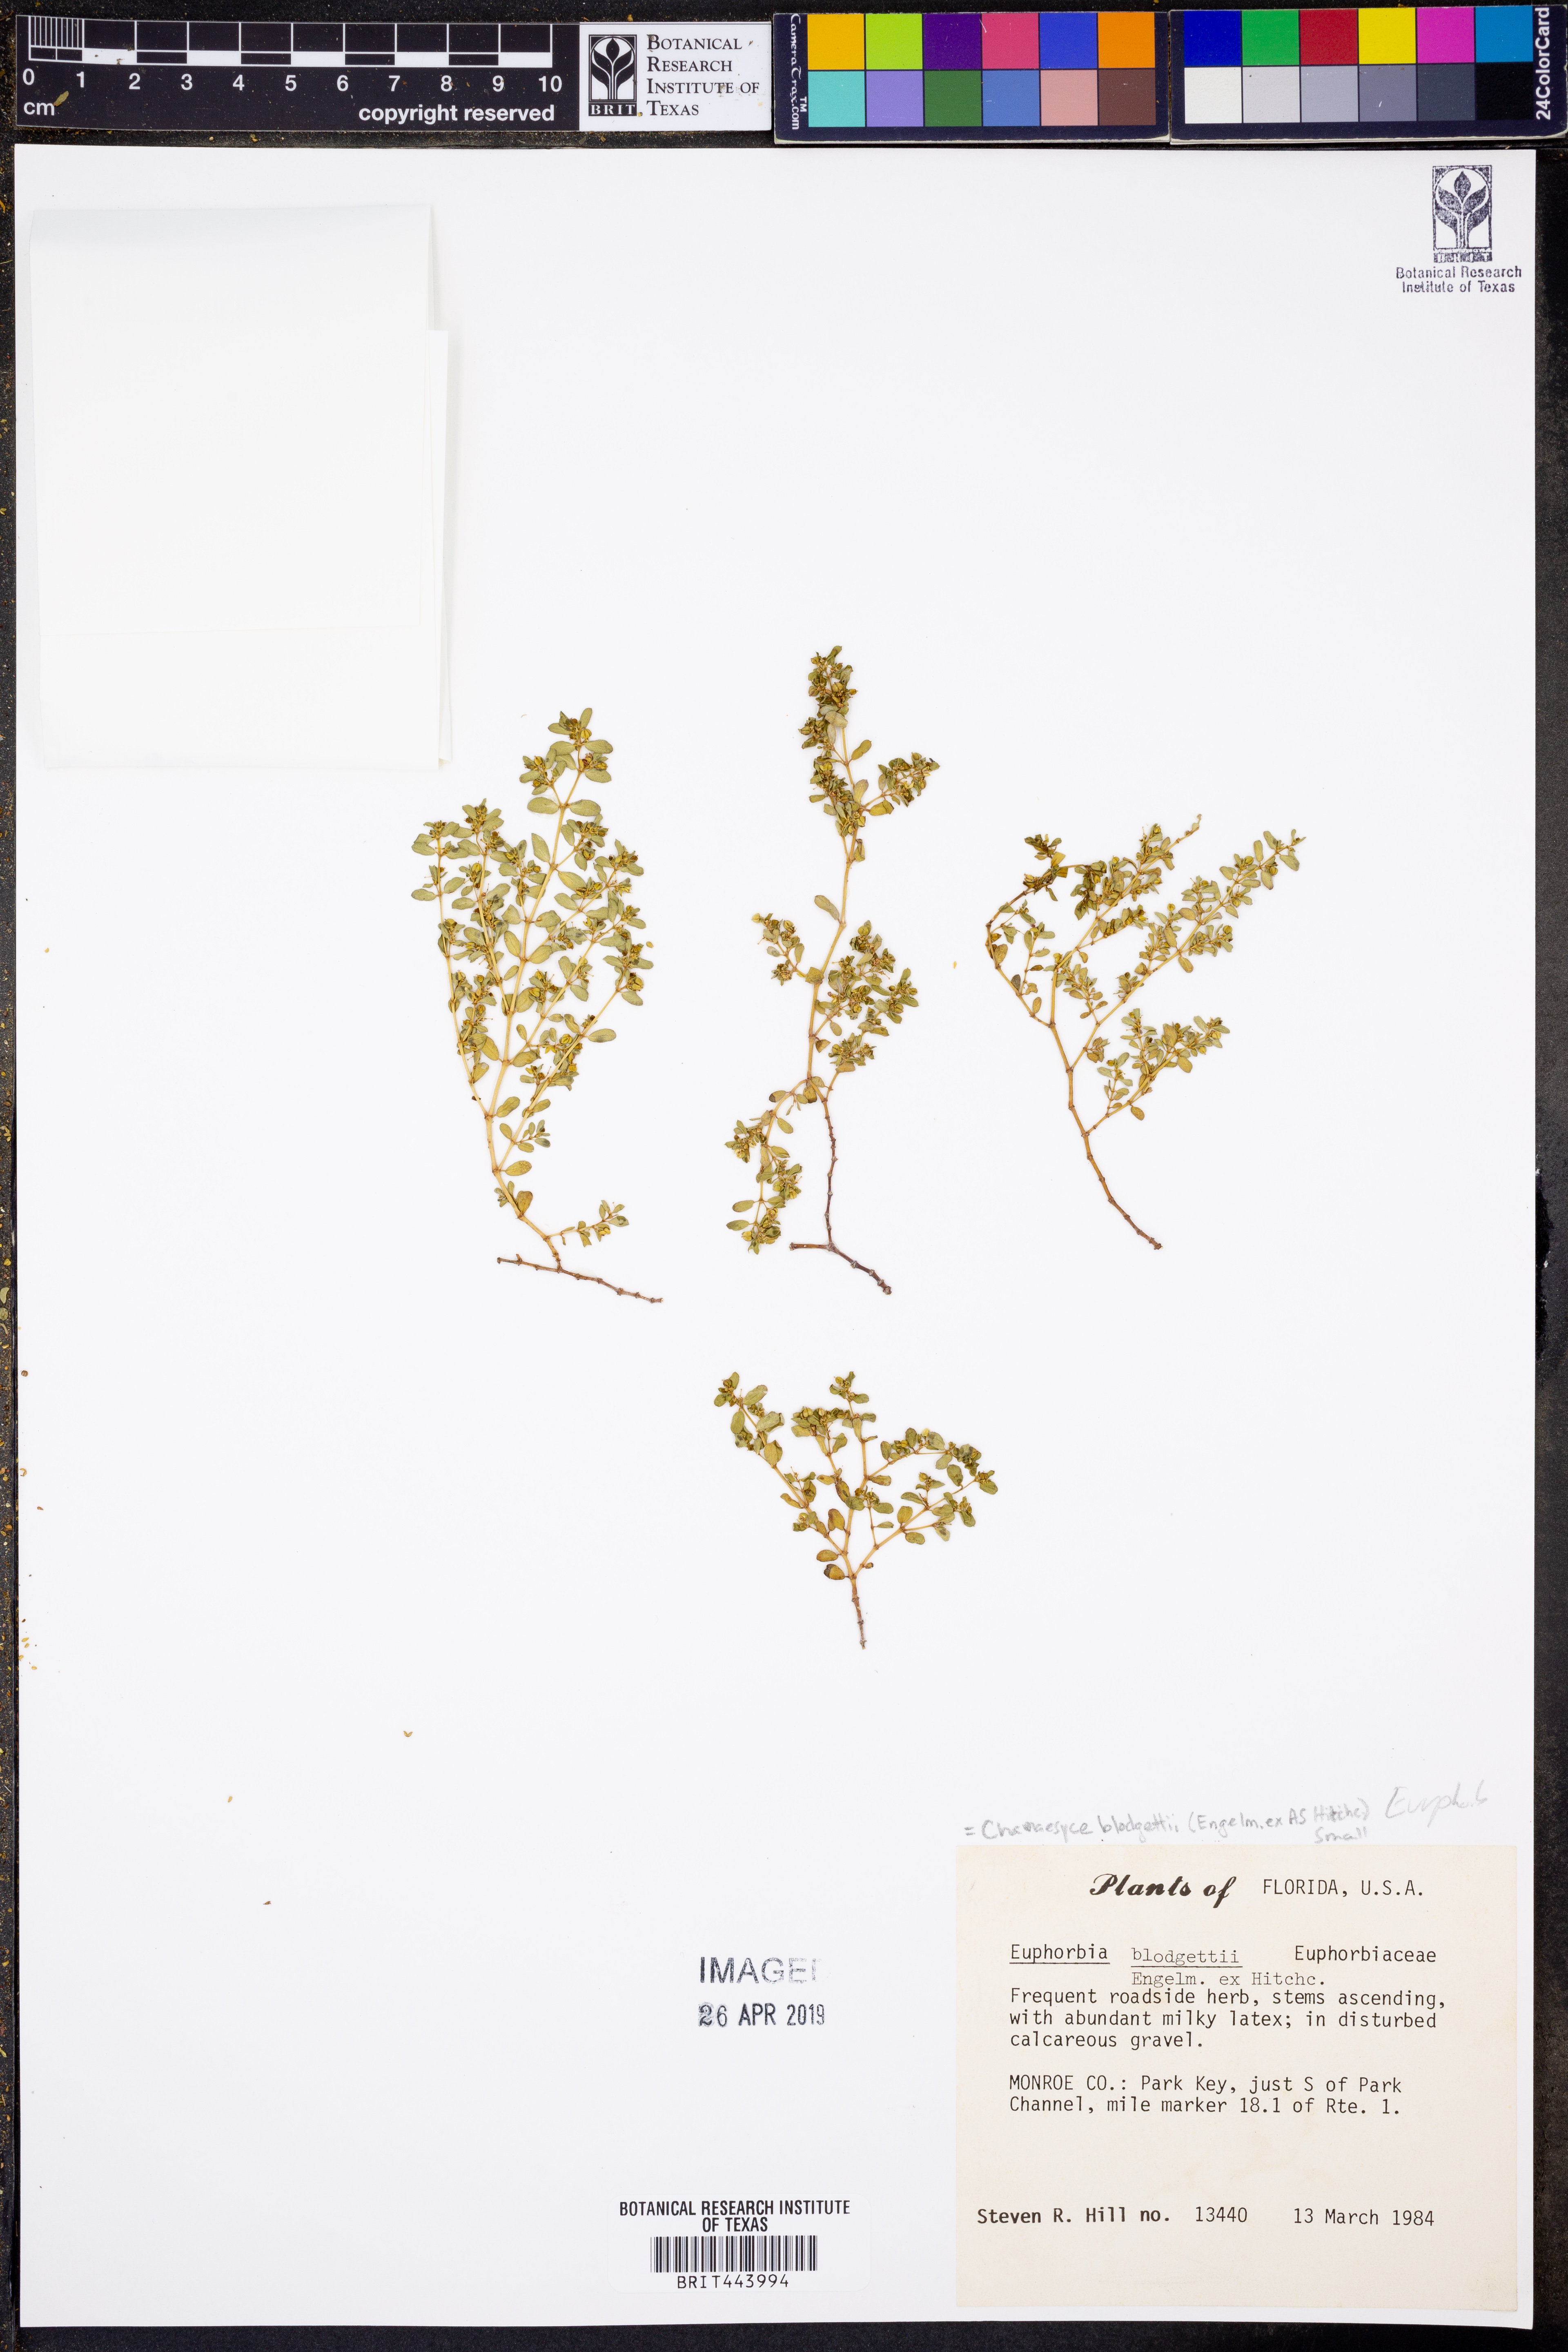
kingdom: Plantae
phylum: Tracheophyta
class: Magnoliopsida
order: Malpighiales
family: Euphorbiaceae
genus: Euphorbia
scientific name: Euphorbia blodgettii
